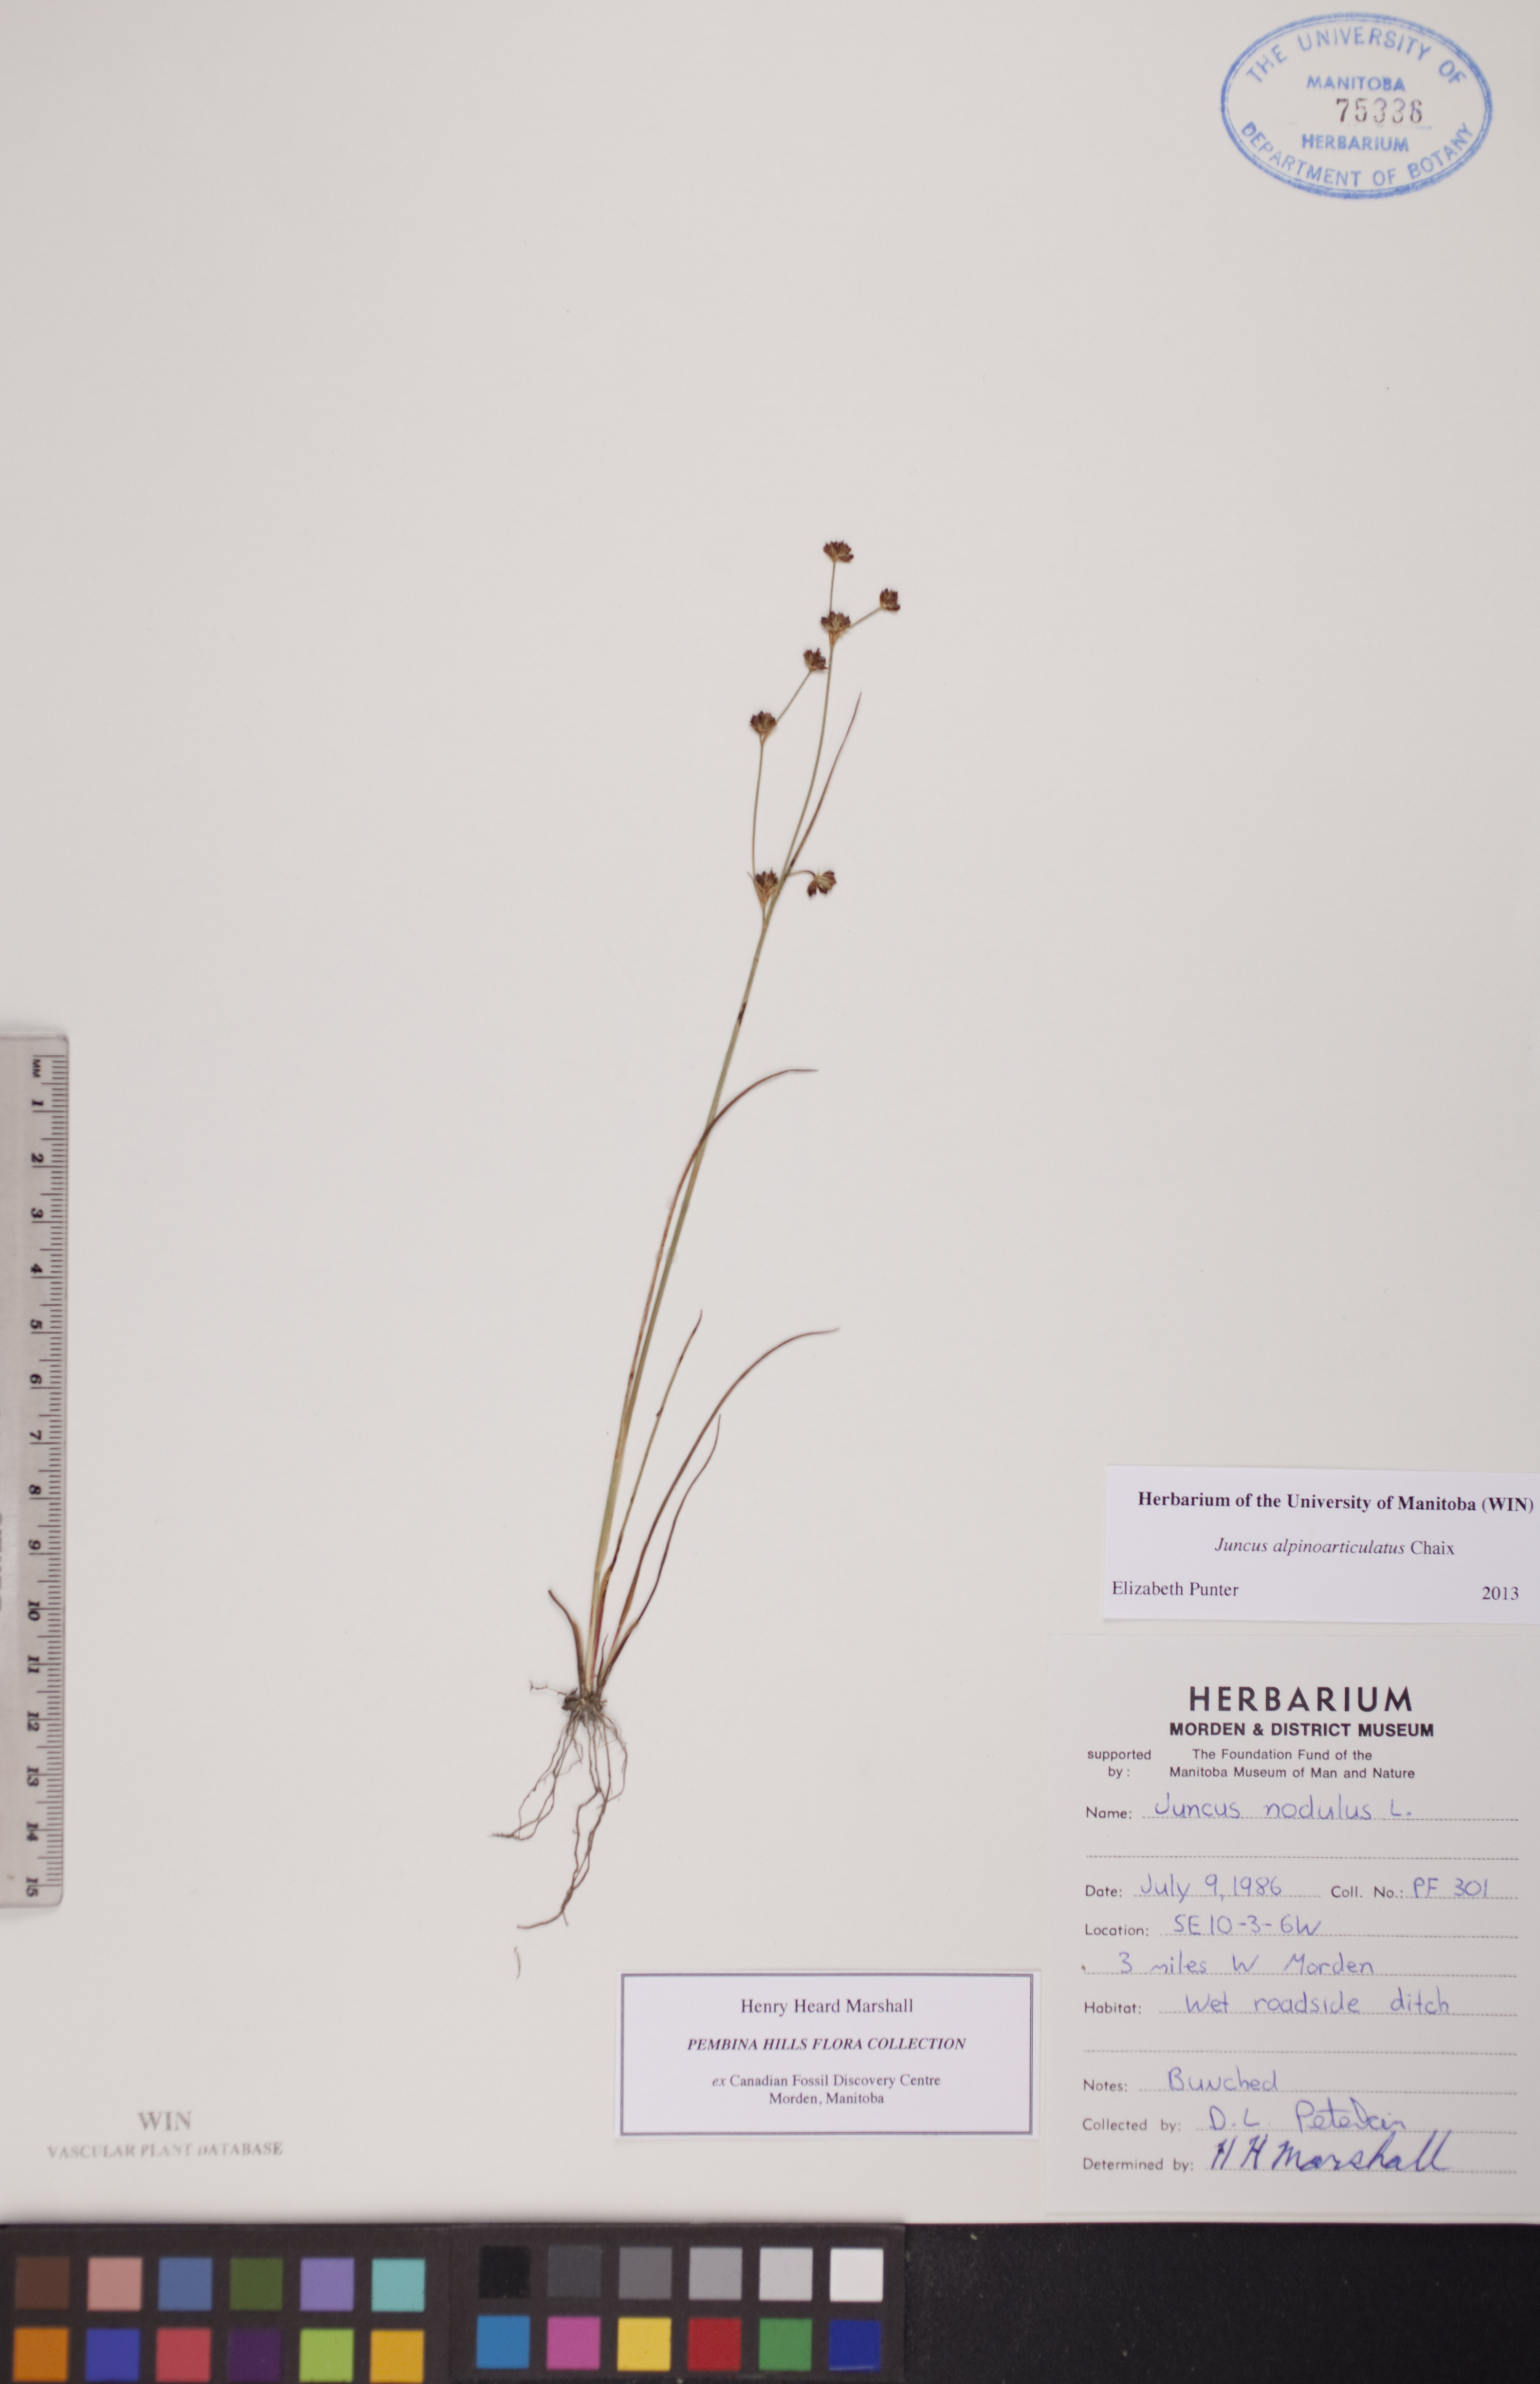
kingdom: Plantae
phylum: Tracheophyta
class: Liliopsida
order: Poales
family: Juncaceae
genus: Juncus
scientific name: Juncus alpinoarticulatus
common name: Alpine rush
